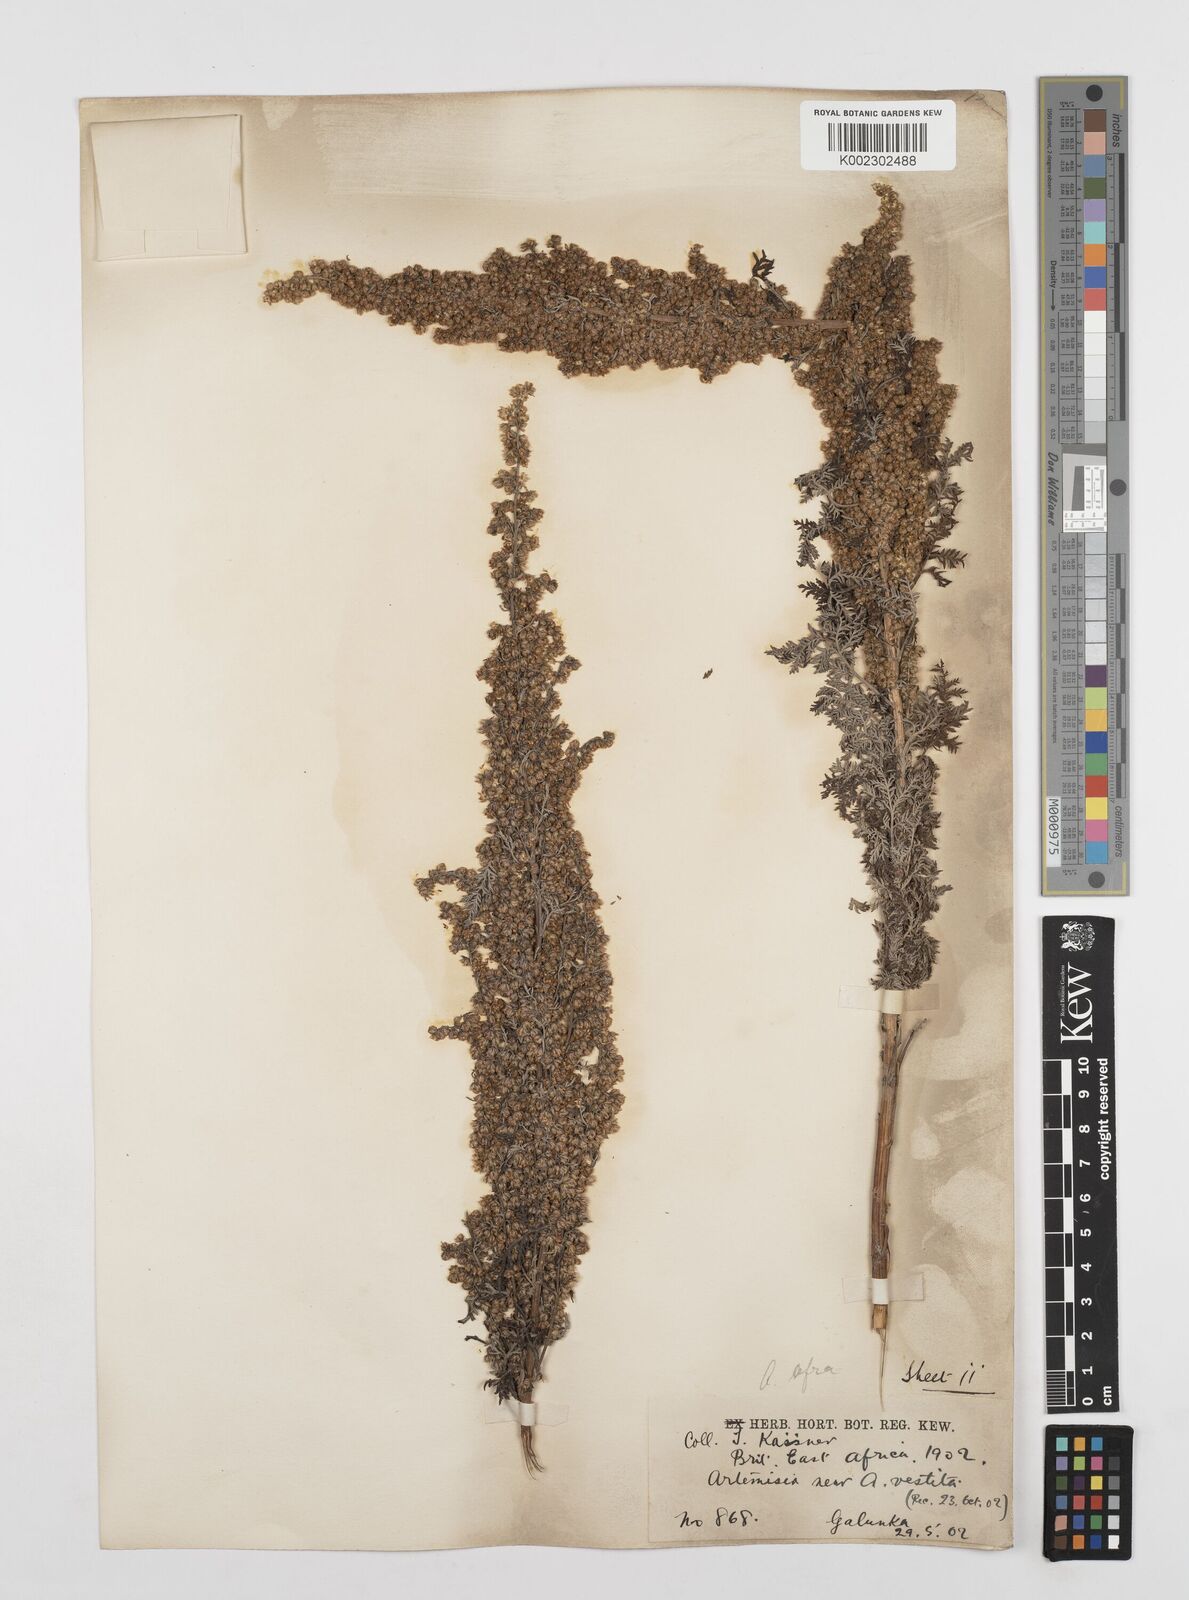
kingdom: Plantae
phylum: Tracheophyta
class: Magnoliopsida
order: Asterales
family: Asteraceae
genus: Artemisia
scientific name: Artemisia afra
